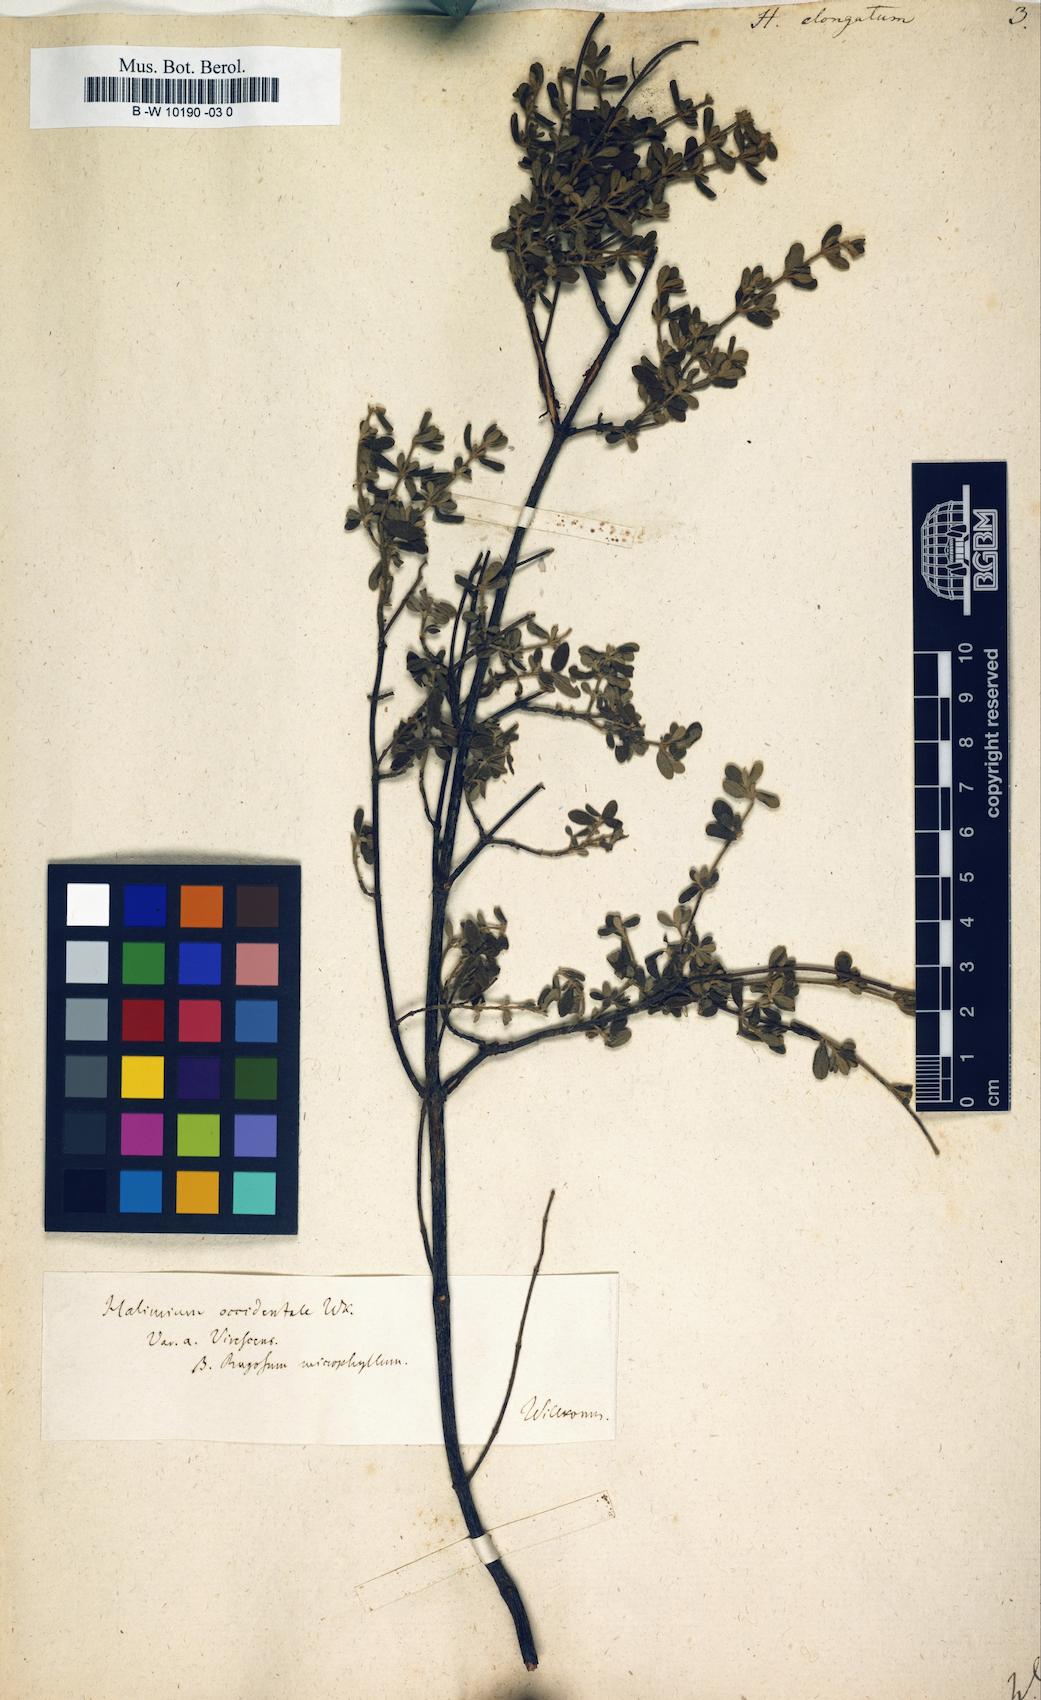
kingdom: Plantae
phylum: Tracheophyta
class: Magnoliopsida
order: Malvales
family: Cistaceae
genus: Halimium
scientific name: Halimium lasianthum
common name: Lisbon false sun-rose
